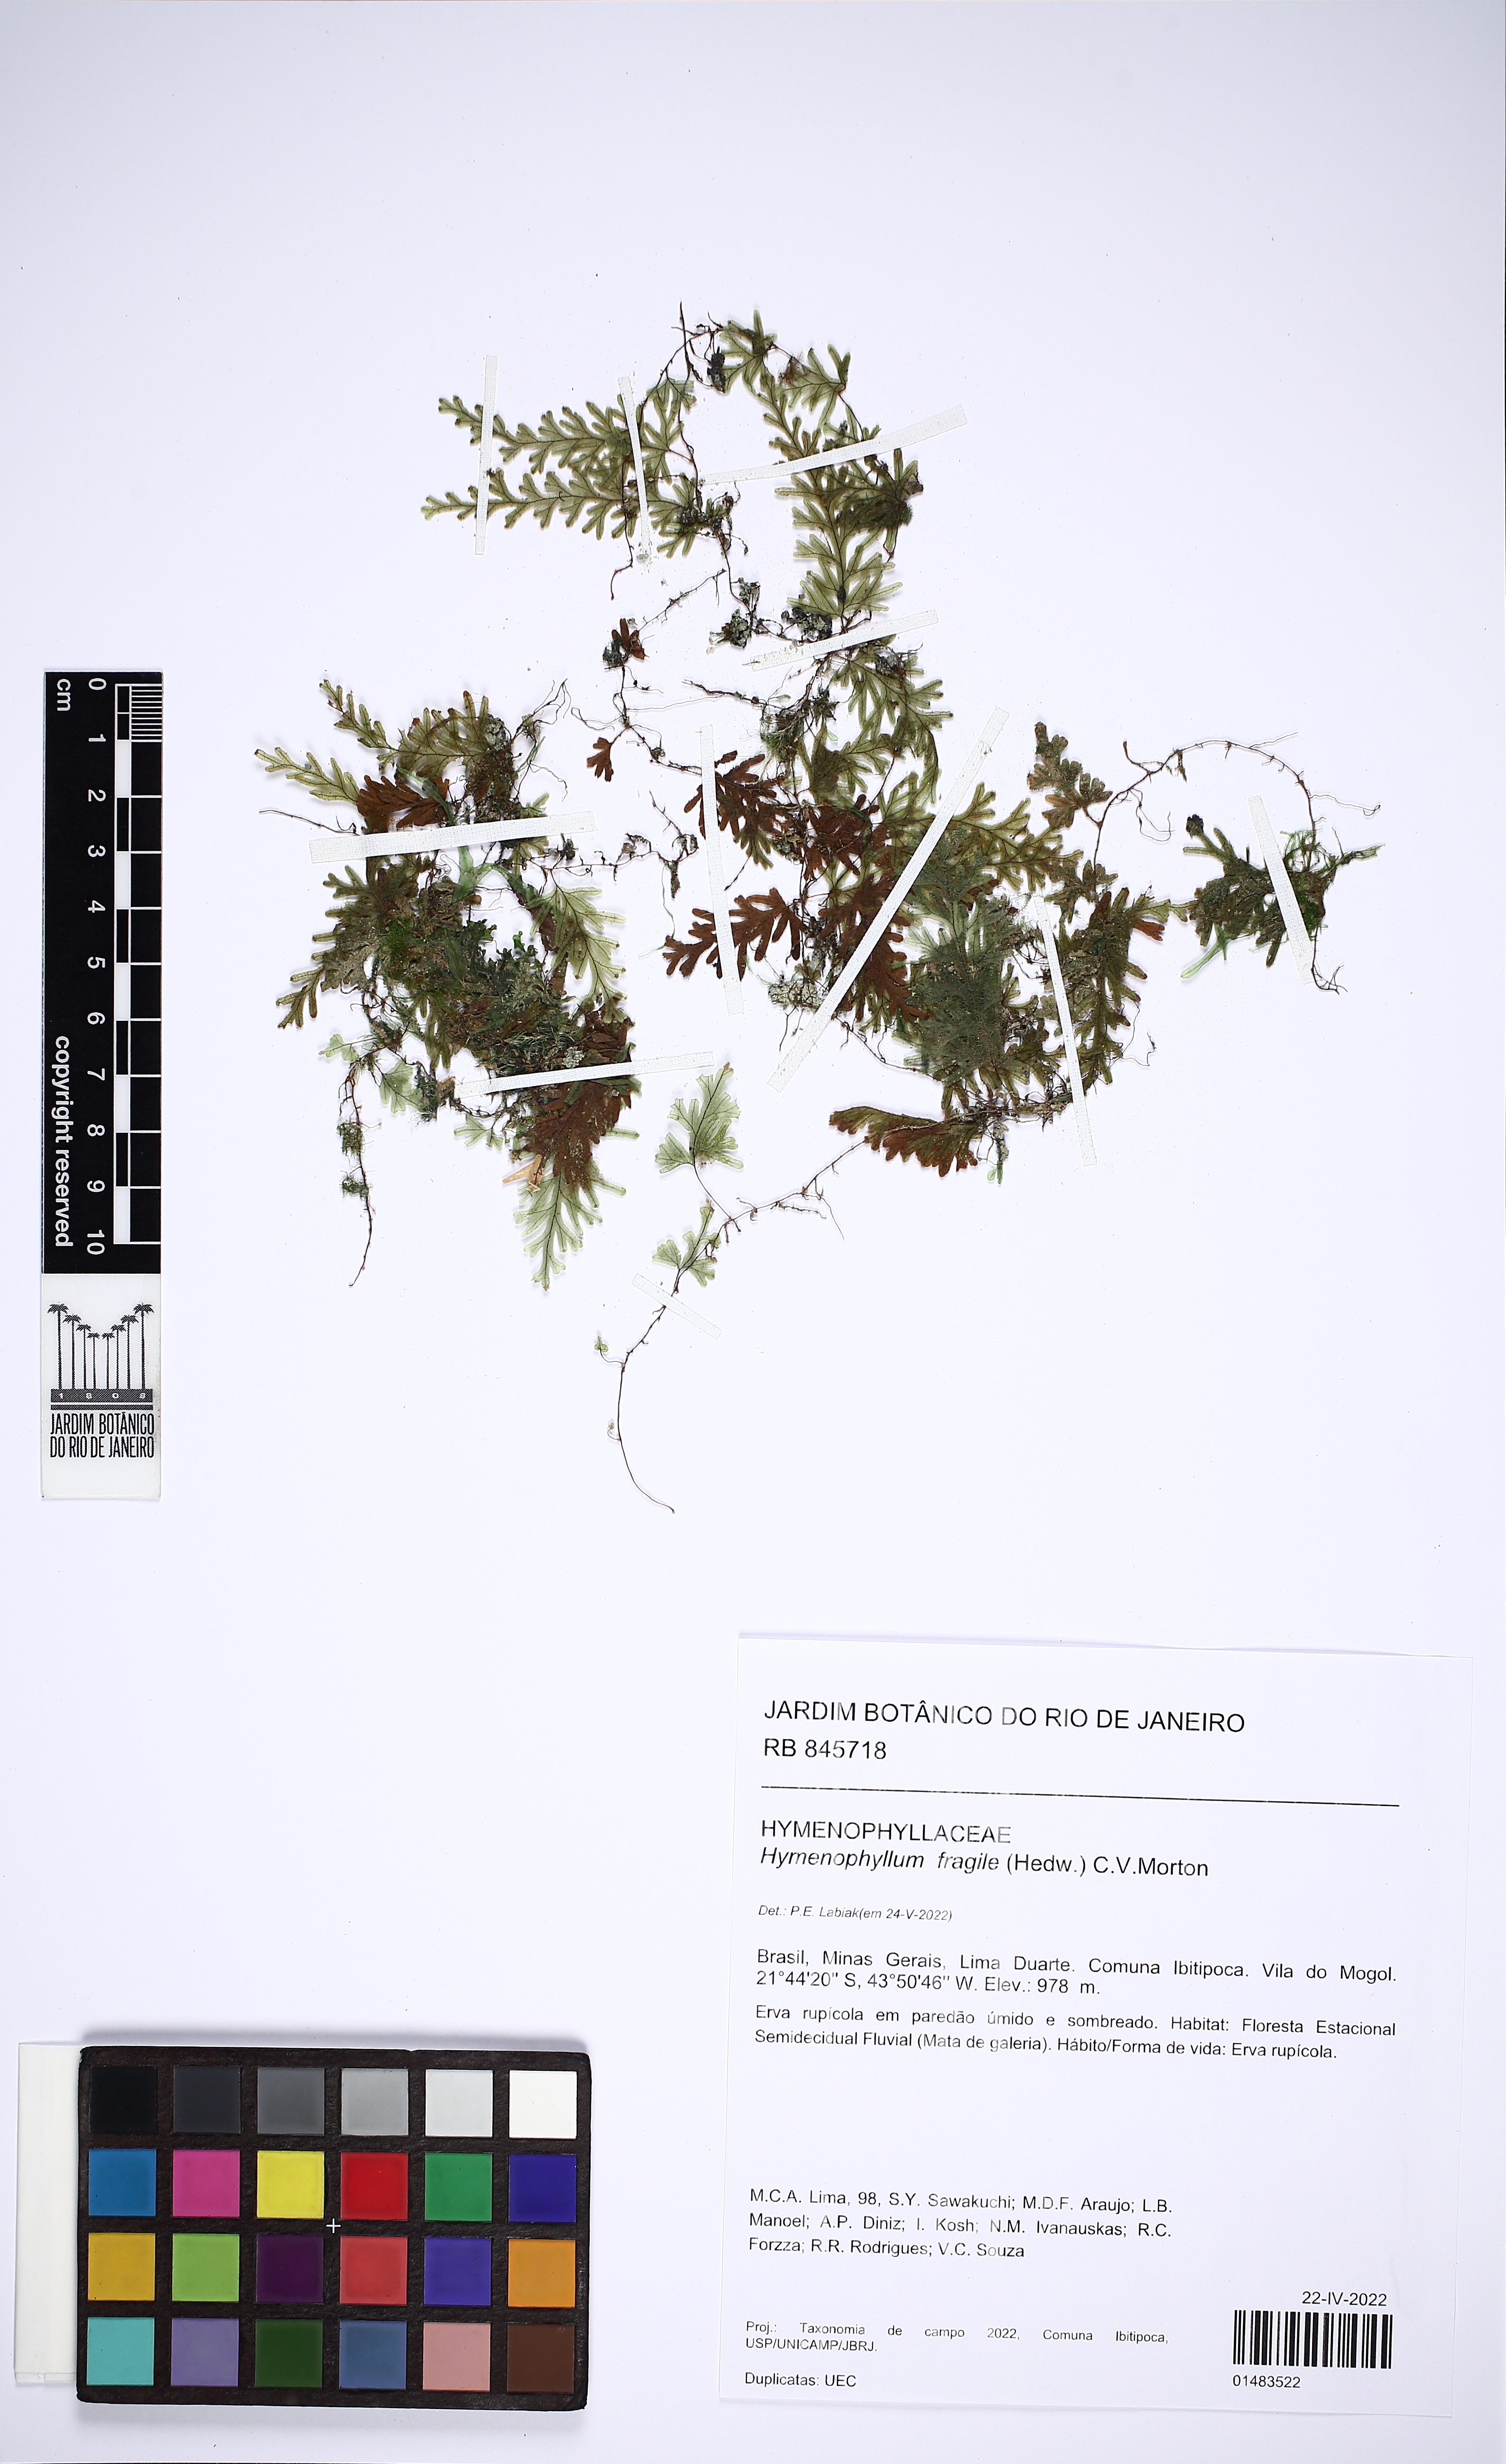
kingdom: Plantae
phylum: Tracheophyta
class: Polypodiopsida
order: Hymenophyllales
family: Hymenophyllaceae
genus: Hymenophyllum
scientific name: Hymenophyllum fragile
